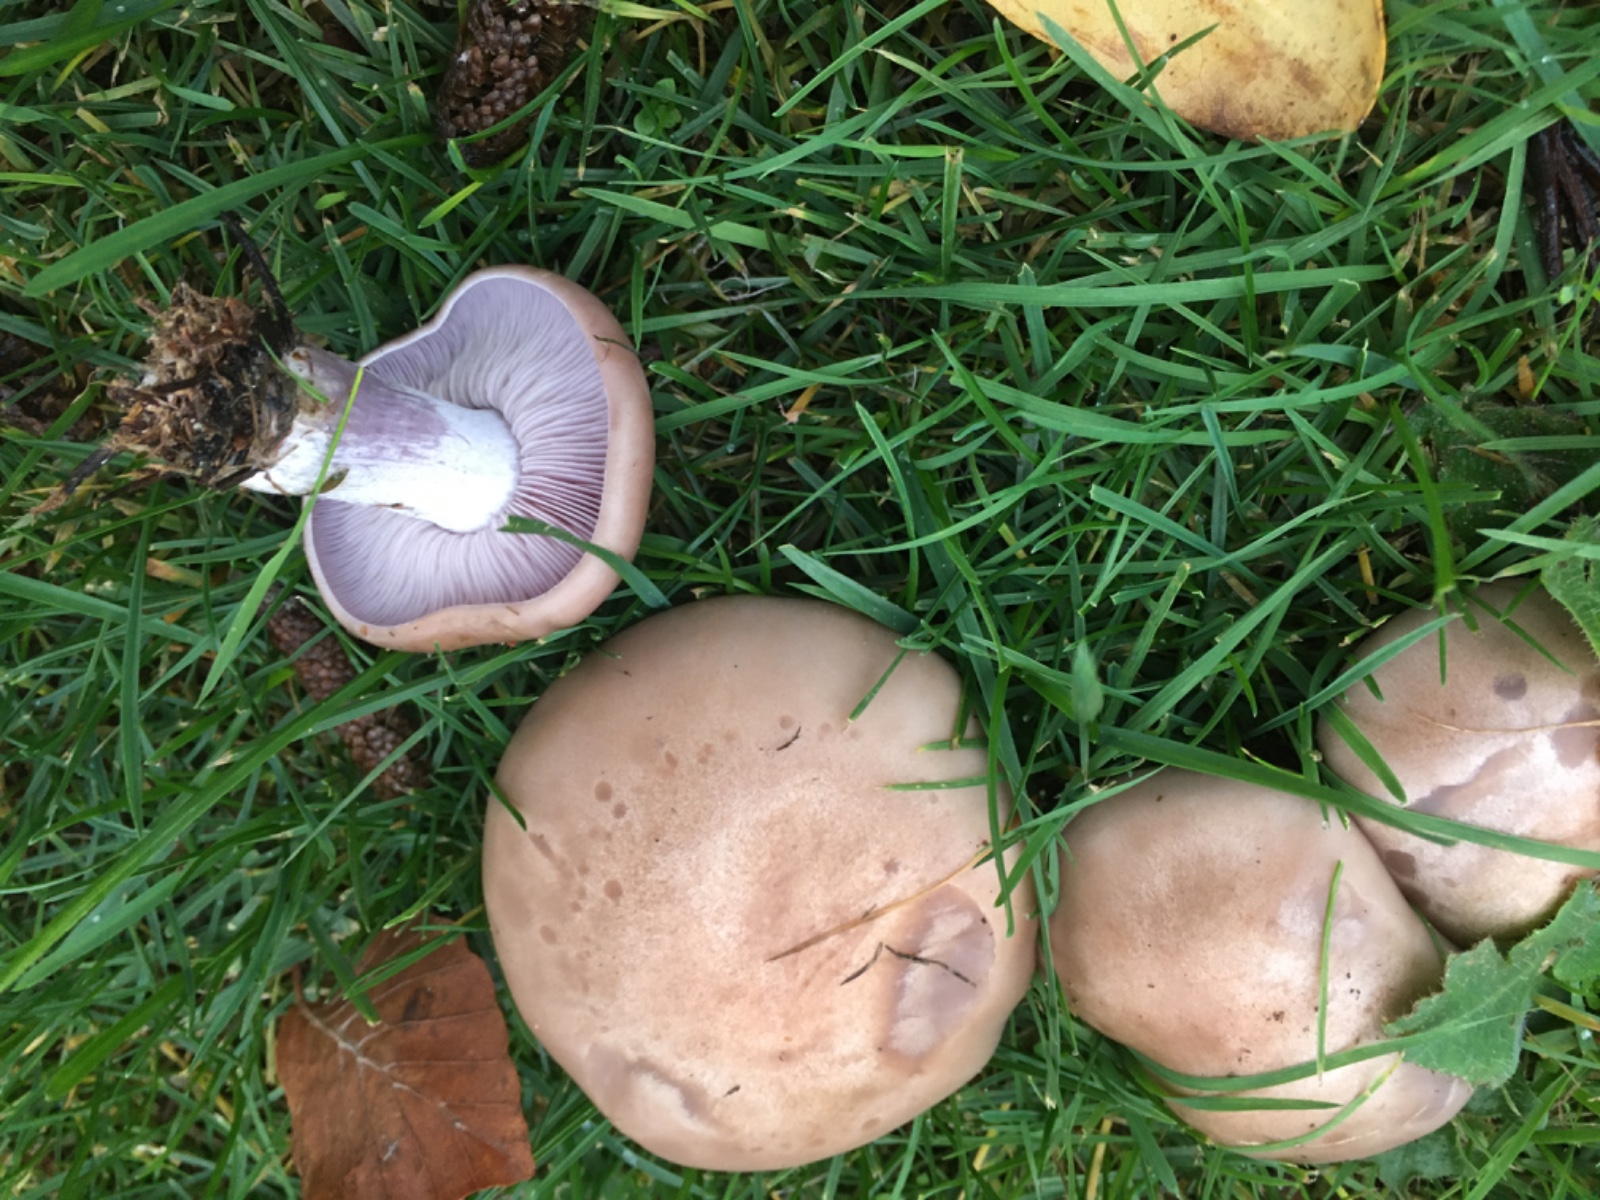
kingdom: Fungi
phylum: Basidiomycota
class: Agaricomycetes
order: Agaricales
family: Tricholomataceae
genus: Lepista
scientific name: Lepista nuda
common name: violet hekseringshat
